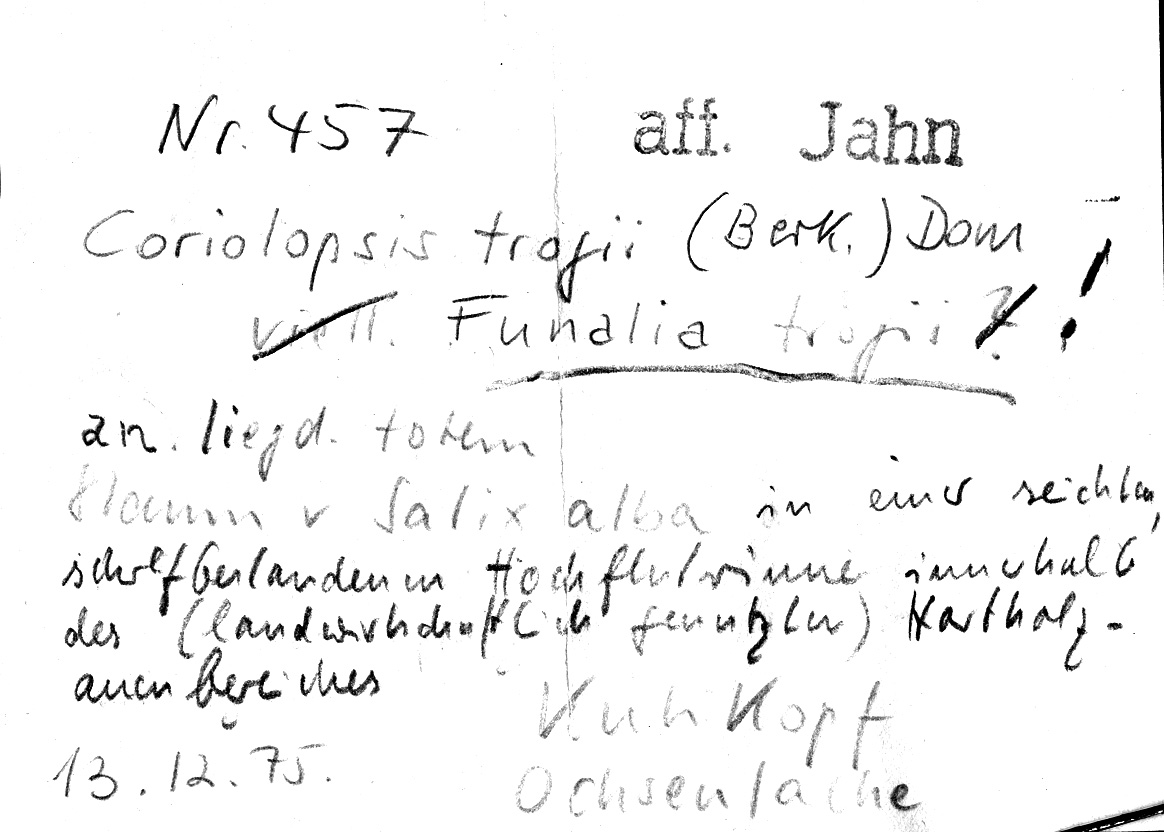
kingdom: Plantae
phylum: Tracheophyta
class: Magnoliopsida
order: Malpighiales
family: Salicaceae
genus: Salix
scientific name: Salix alba
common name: White willow
